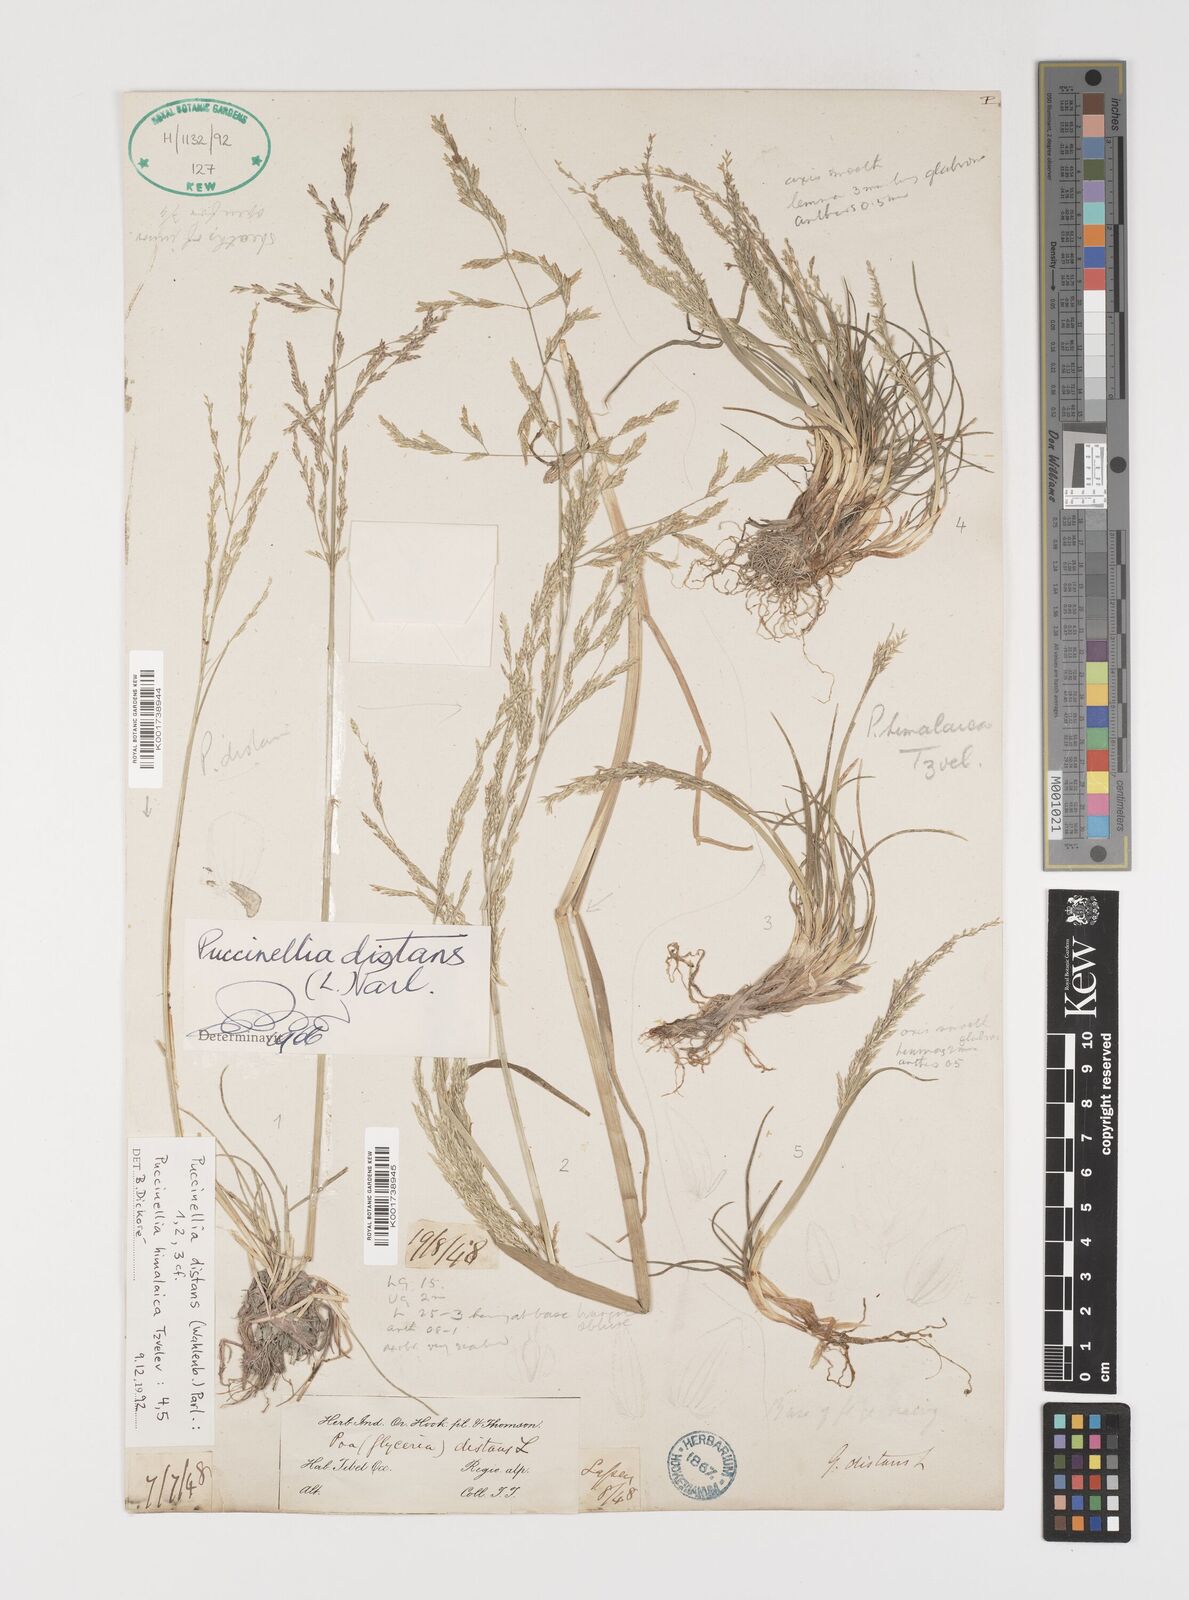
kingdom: Plantae
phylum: Tracheophyta
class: Liliopsida
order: Poales
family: Poaceae
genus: Puccinellia
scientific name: Puccinellia distans
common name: Weeping alkaligrass
